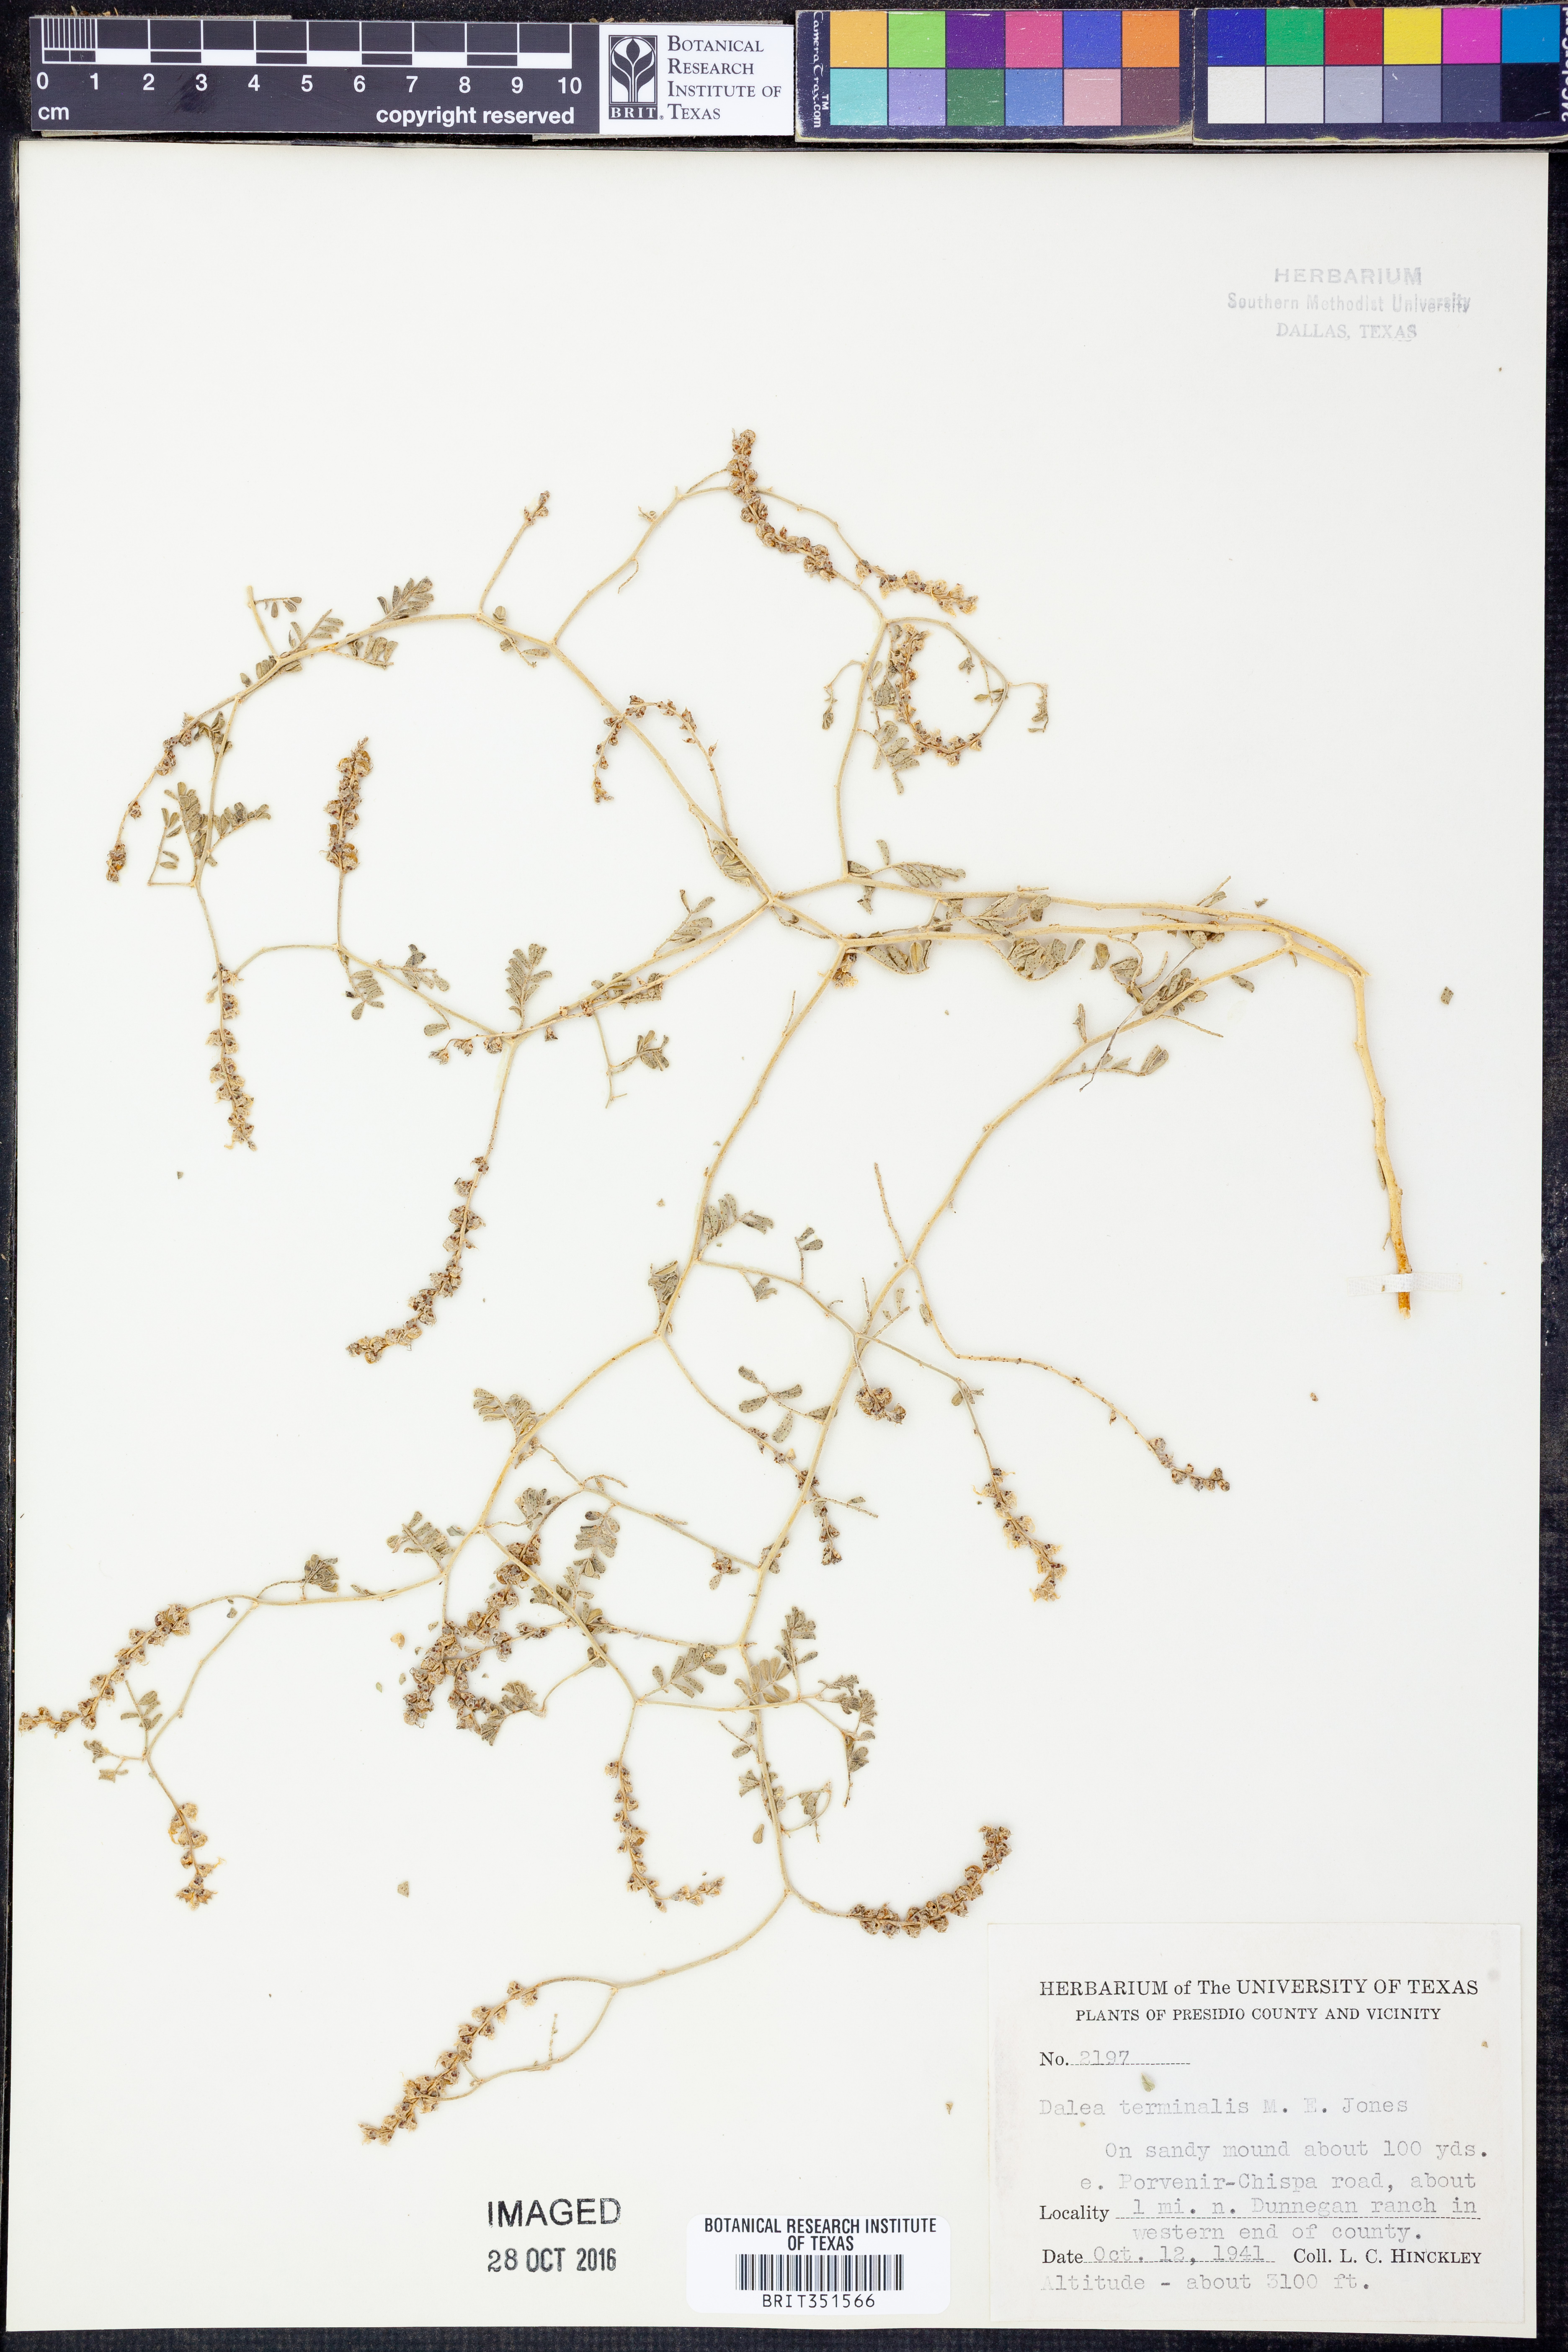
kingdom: Plantae
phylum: Tracheophyta
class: Magnoliopsida
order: Fabales
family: Fabaceae
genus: Dalea
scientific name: Dalea lanata
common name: Woolly dalea
